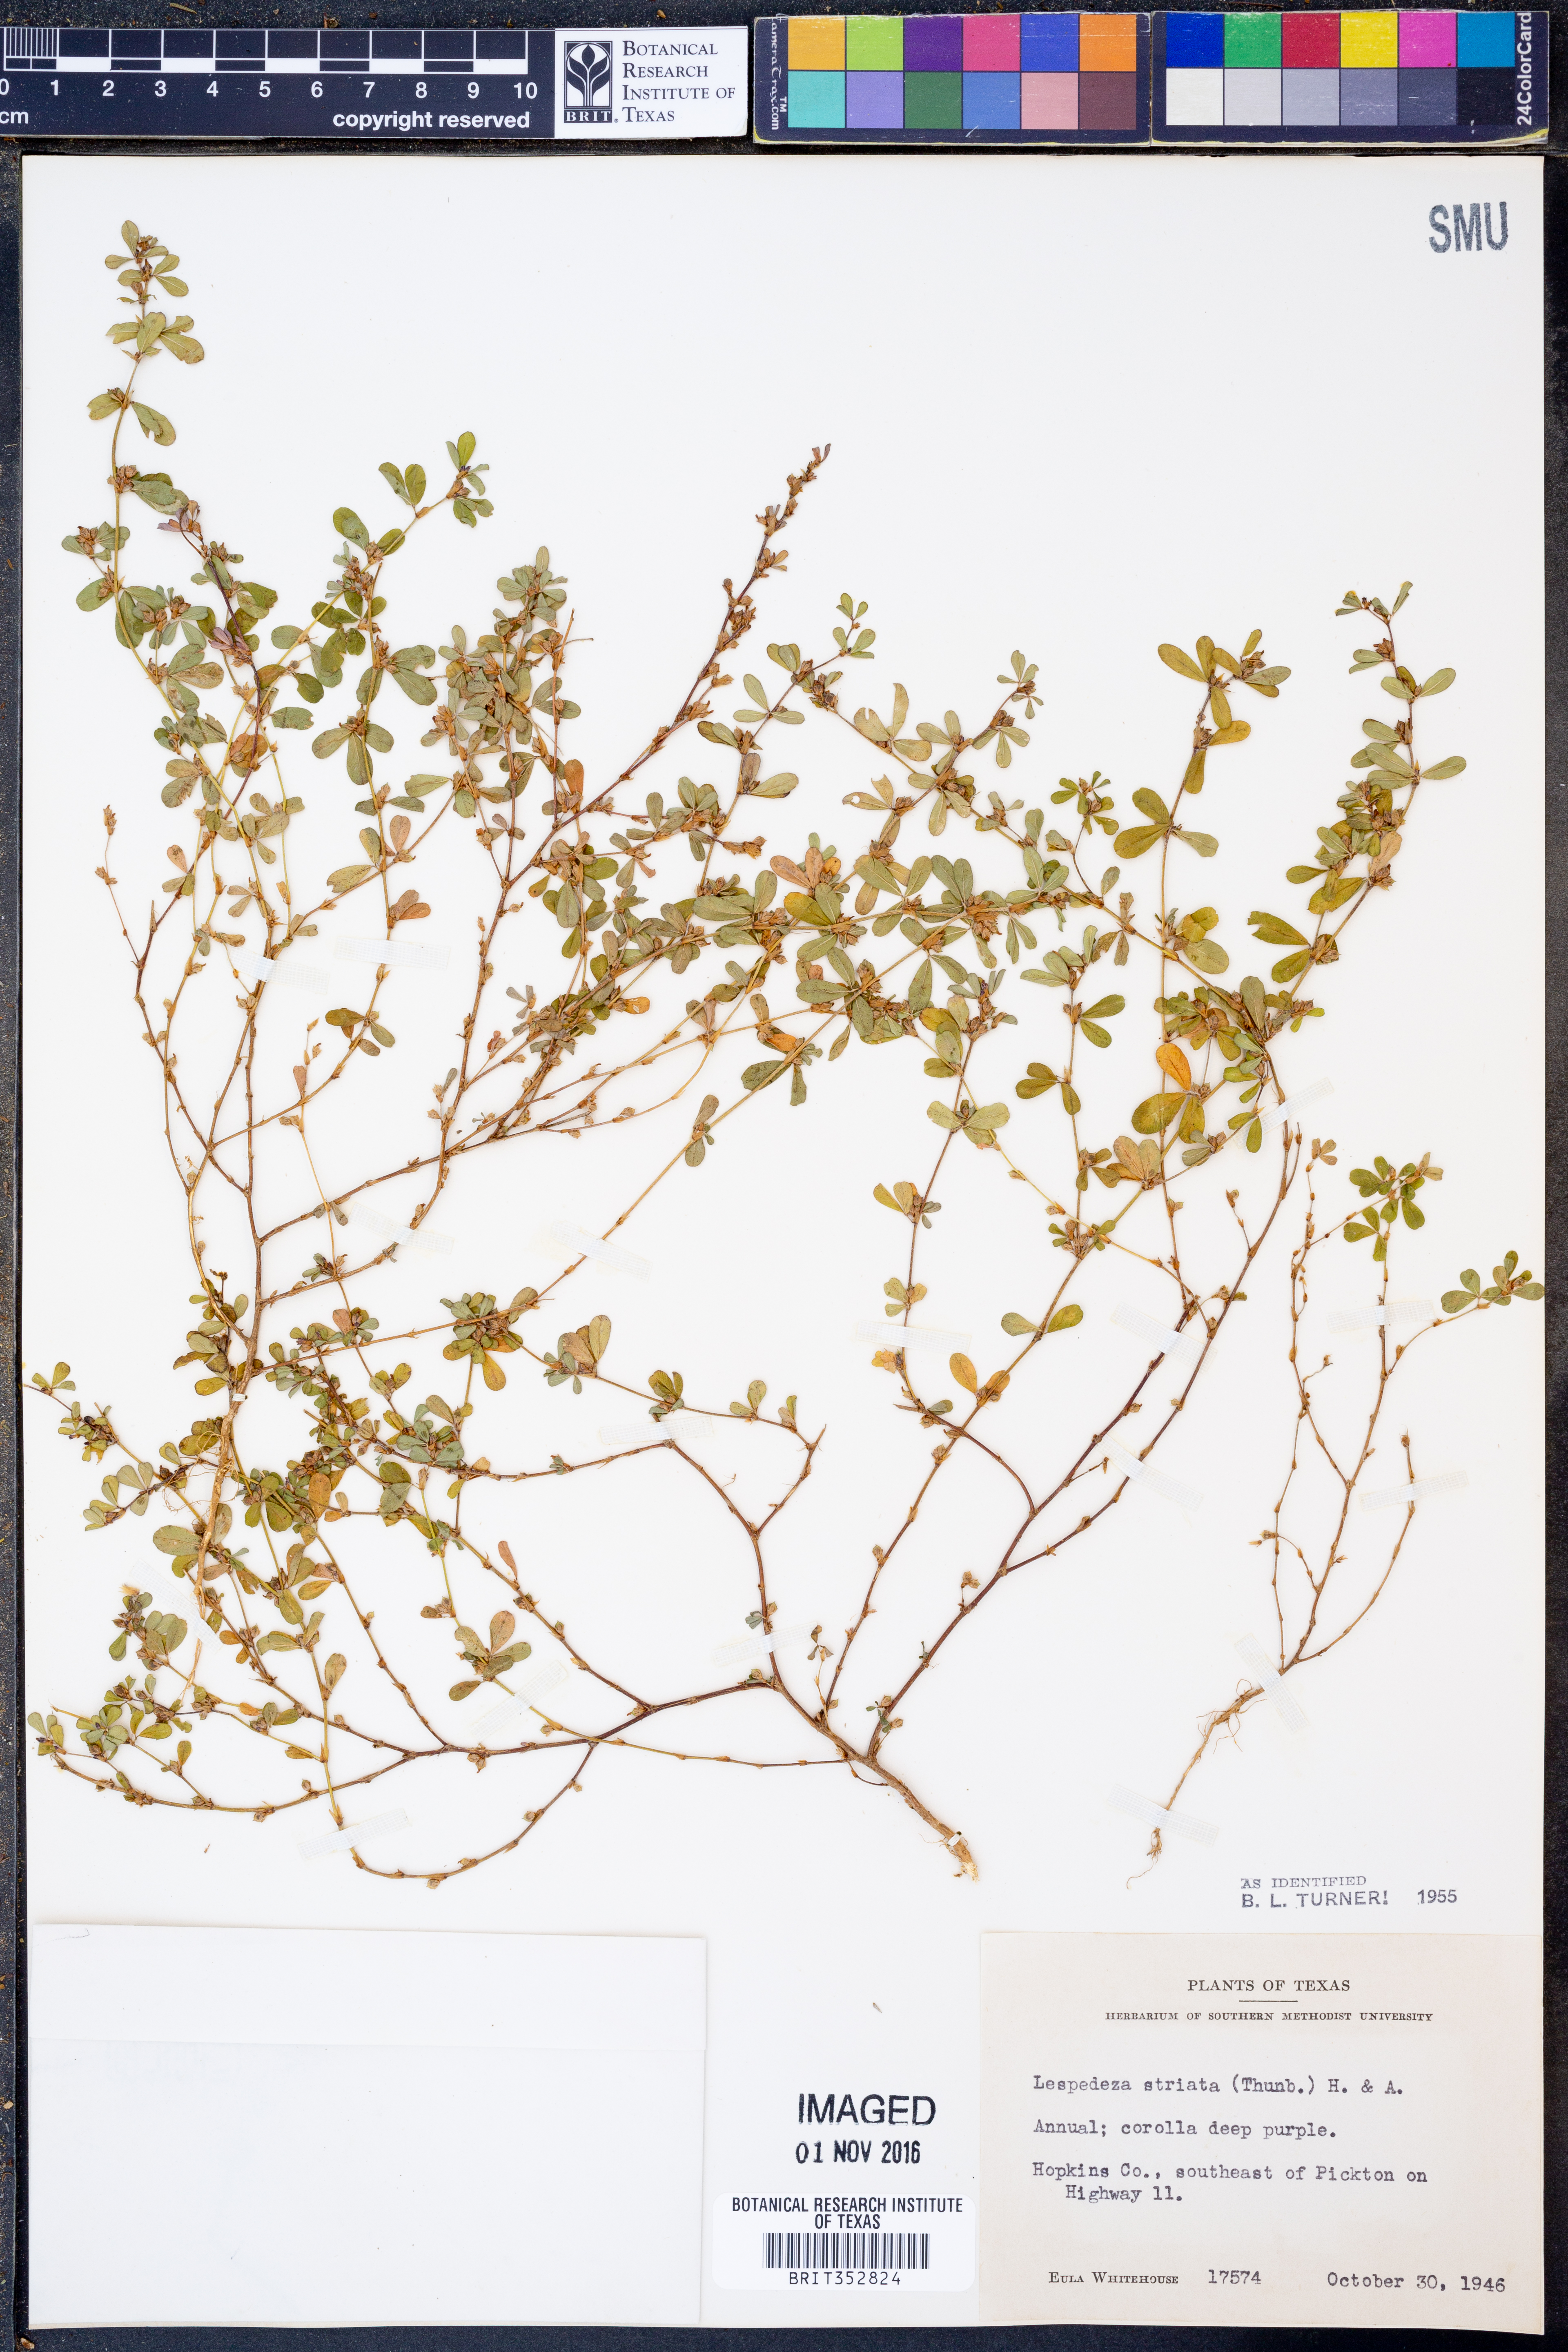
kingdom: Plantae
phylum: Tracheophyta
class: Magnoliopsida
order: Fabales
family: Fabaceae
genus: Kummerowia
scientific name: Kummerowia striata
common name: Japanese clover
